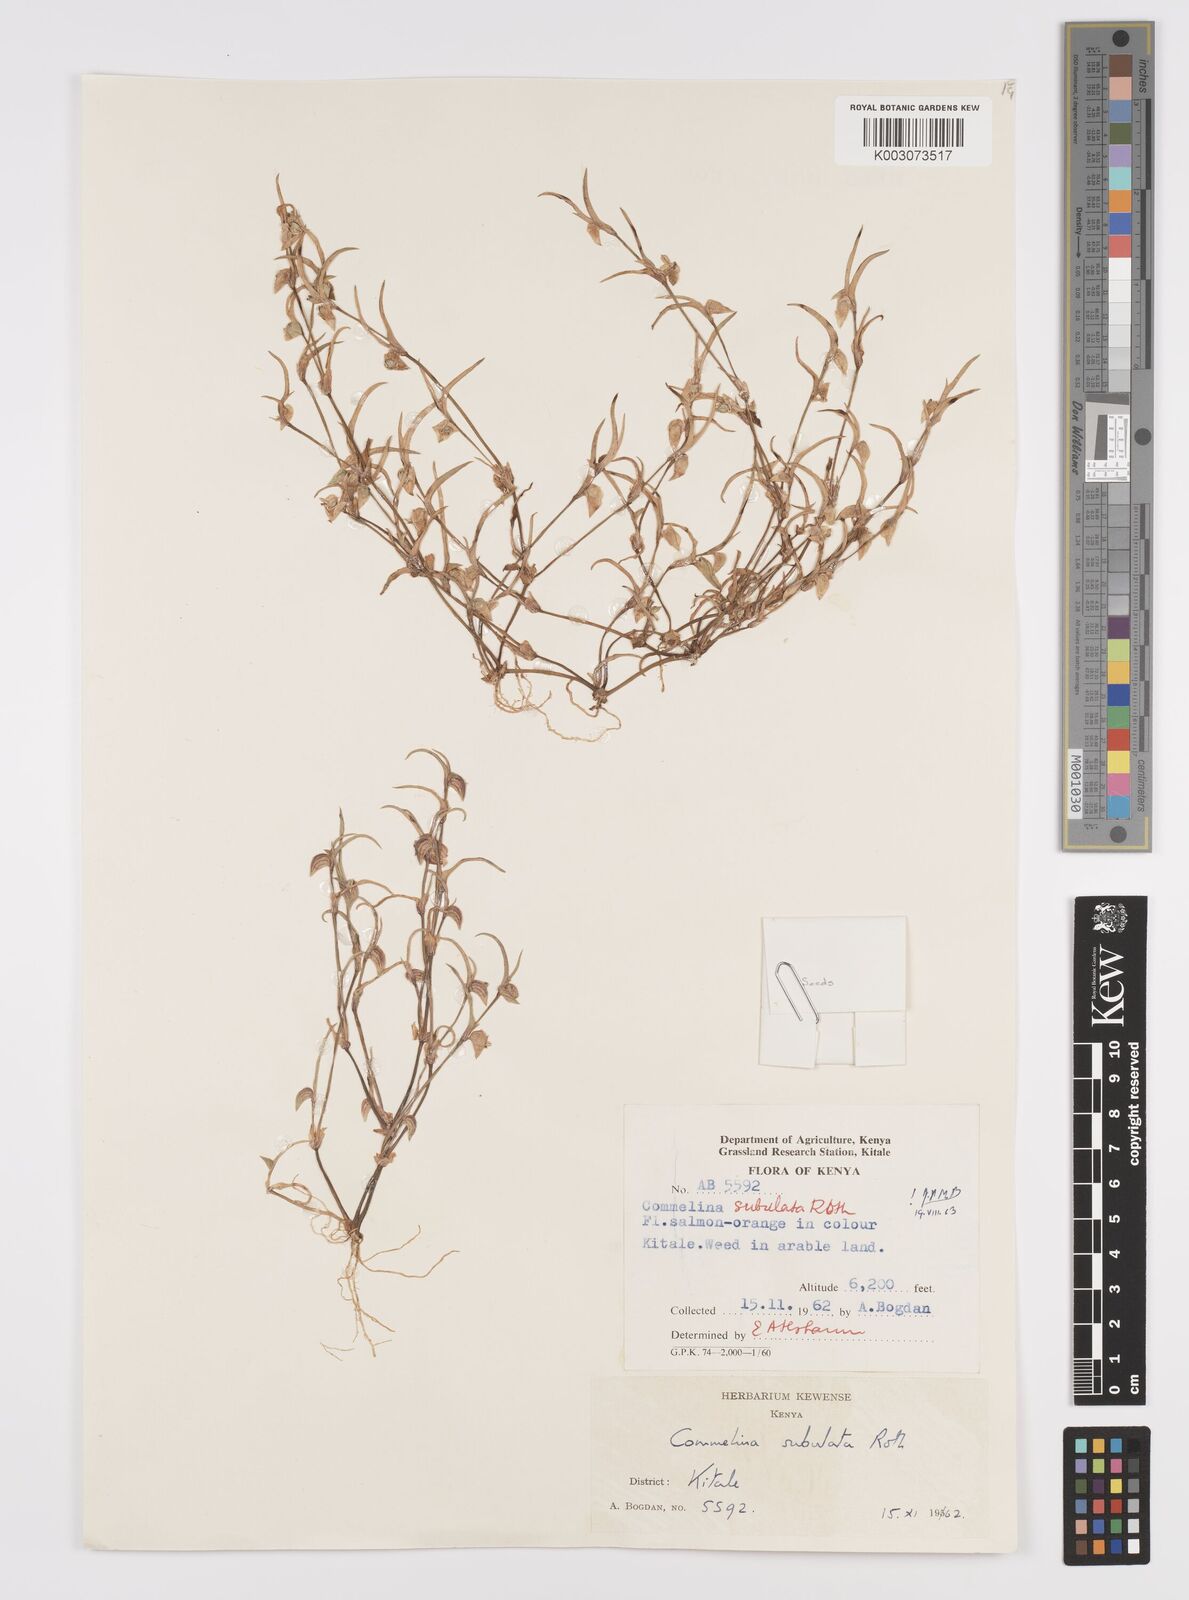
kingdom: Plantae
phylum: Tracheophyta
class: Liliopsida
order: Commelinales
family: Commelinaceae
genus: Commelina
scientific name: Commelina subulata
